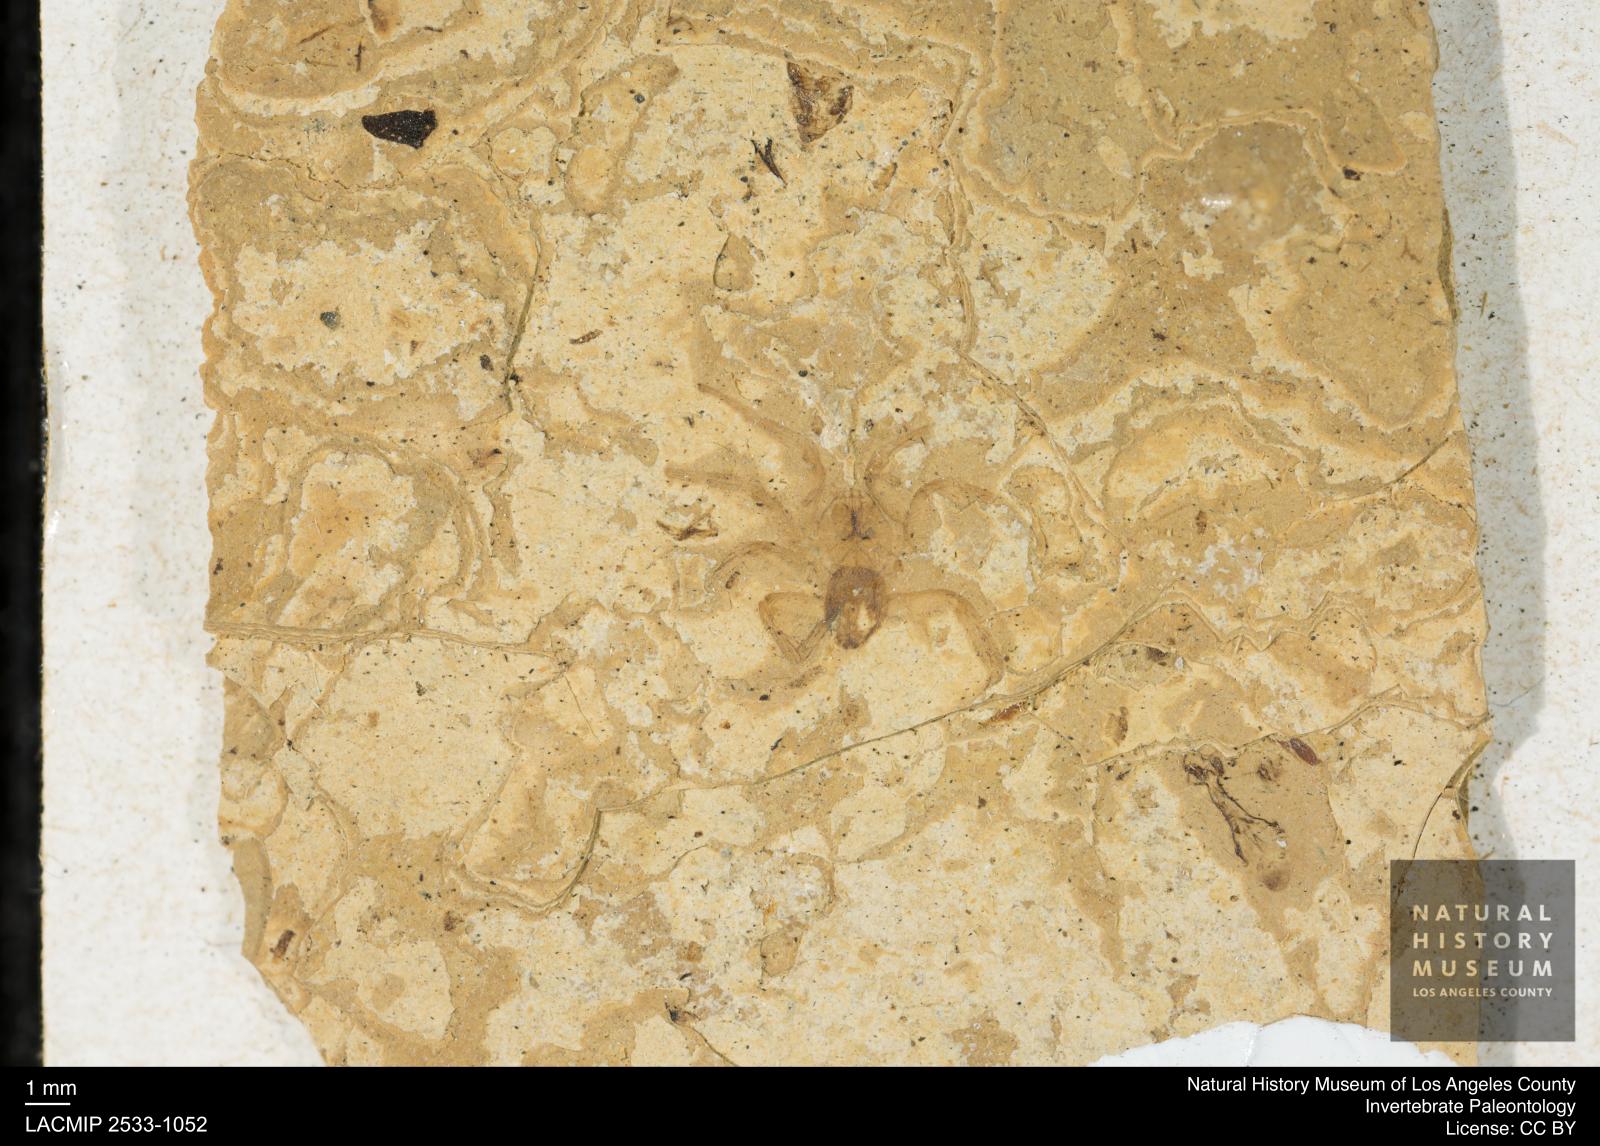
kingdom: Animalia
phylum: Arthropoda
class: Arachnida
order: Araneae
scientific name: Araneae
